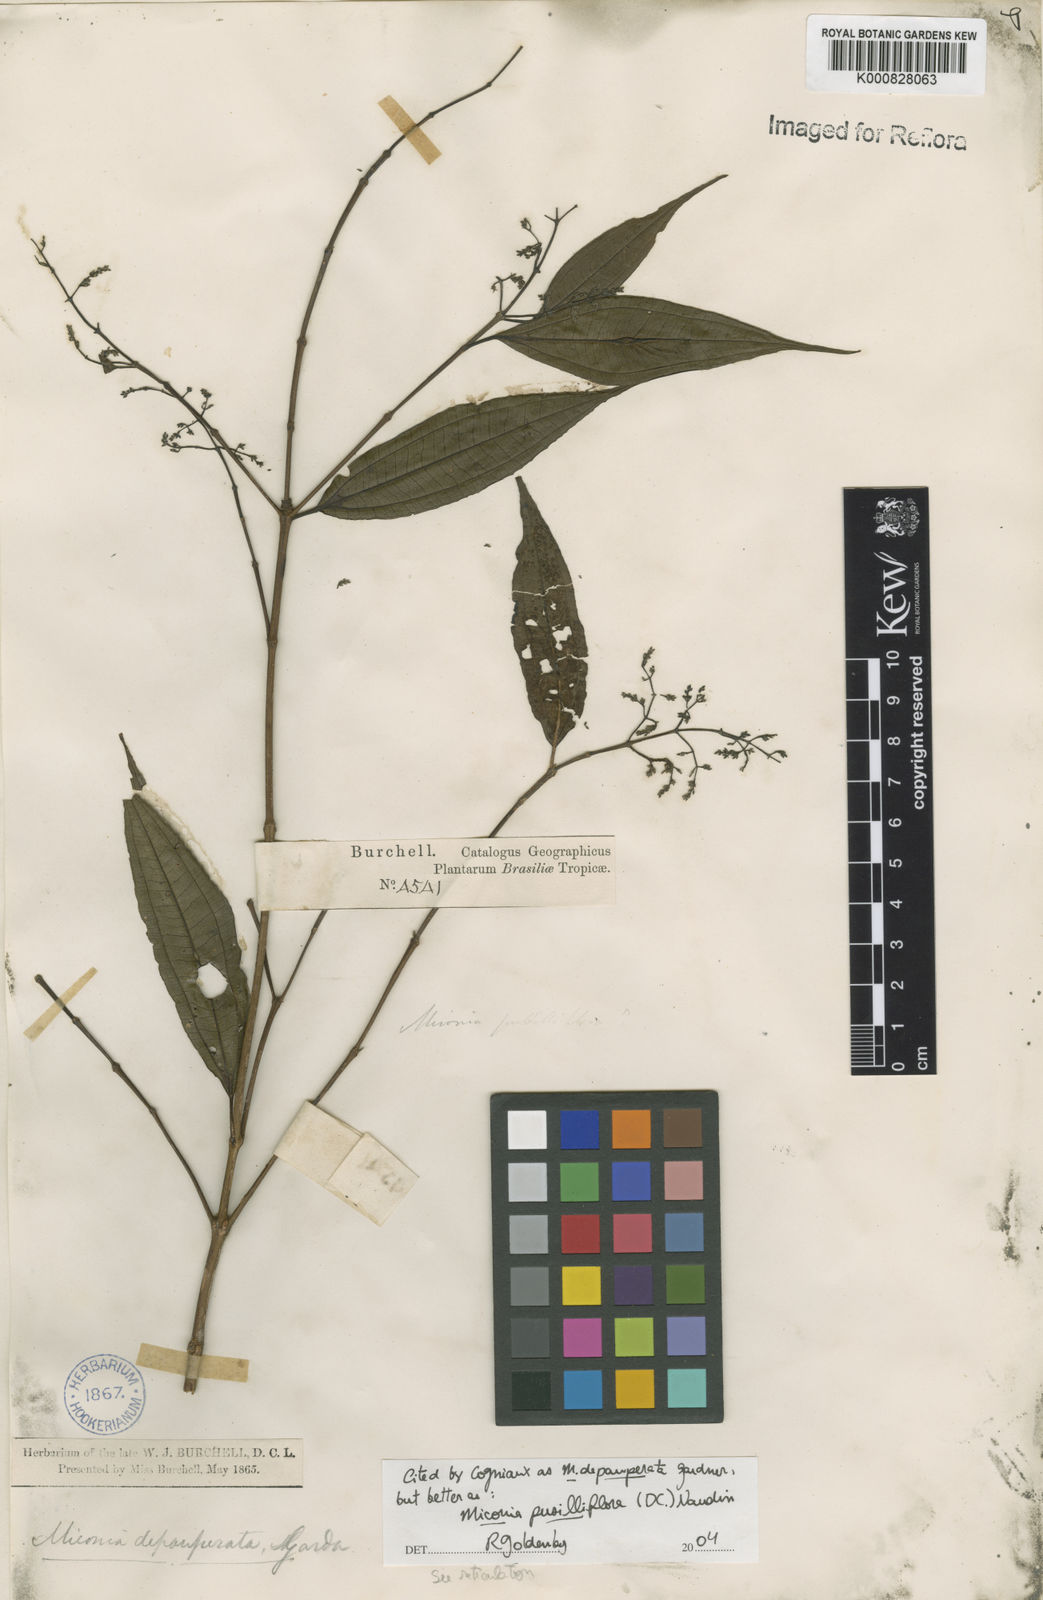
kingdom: Plantae
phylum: Tracheophyta
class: Magnoliopsida
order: Myrtales
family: Melastomataceae
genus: Miconia
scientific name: Miconia depauperata
